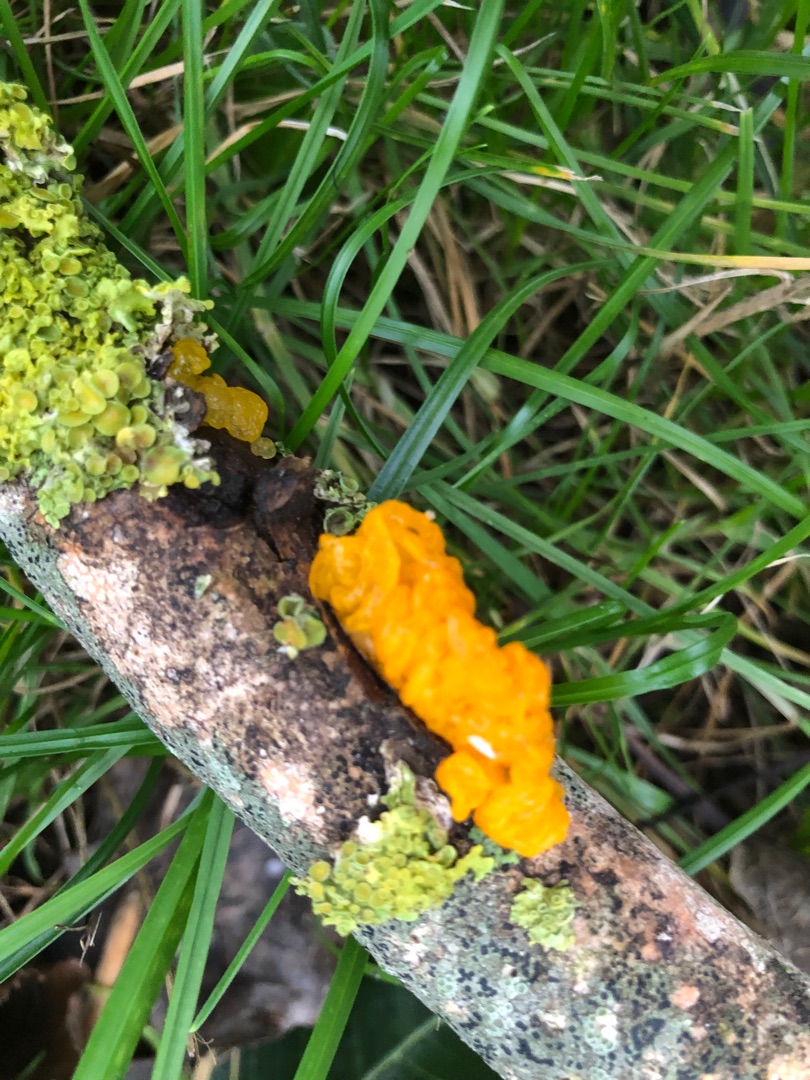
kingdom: Fungi
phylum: Basidiomycota
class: Tremellomycetes
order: Tremellales
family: Tremellaceae
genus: Tremella
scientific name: Tremella mesenterica
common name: Gul bævresvamp
